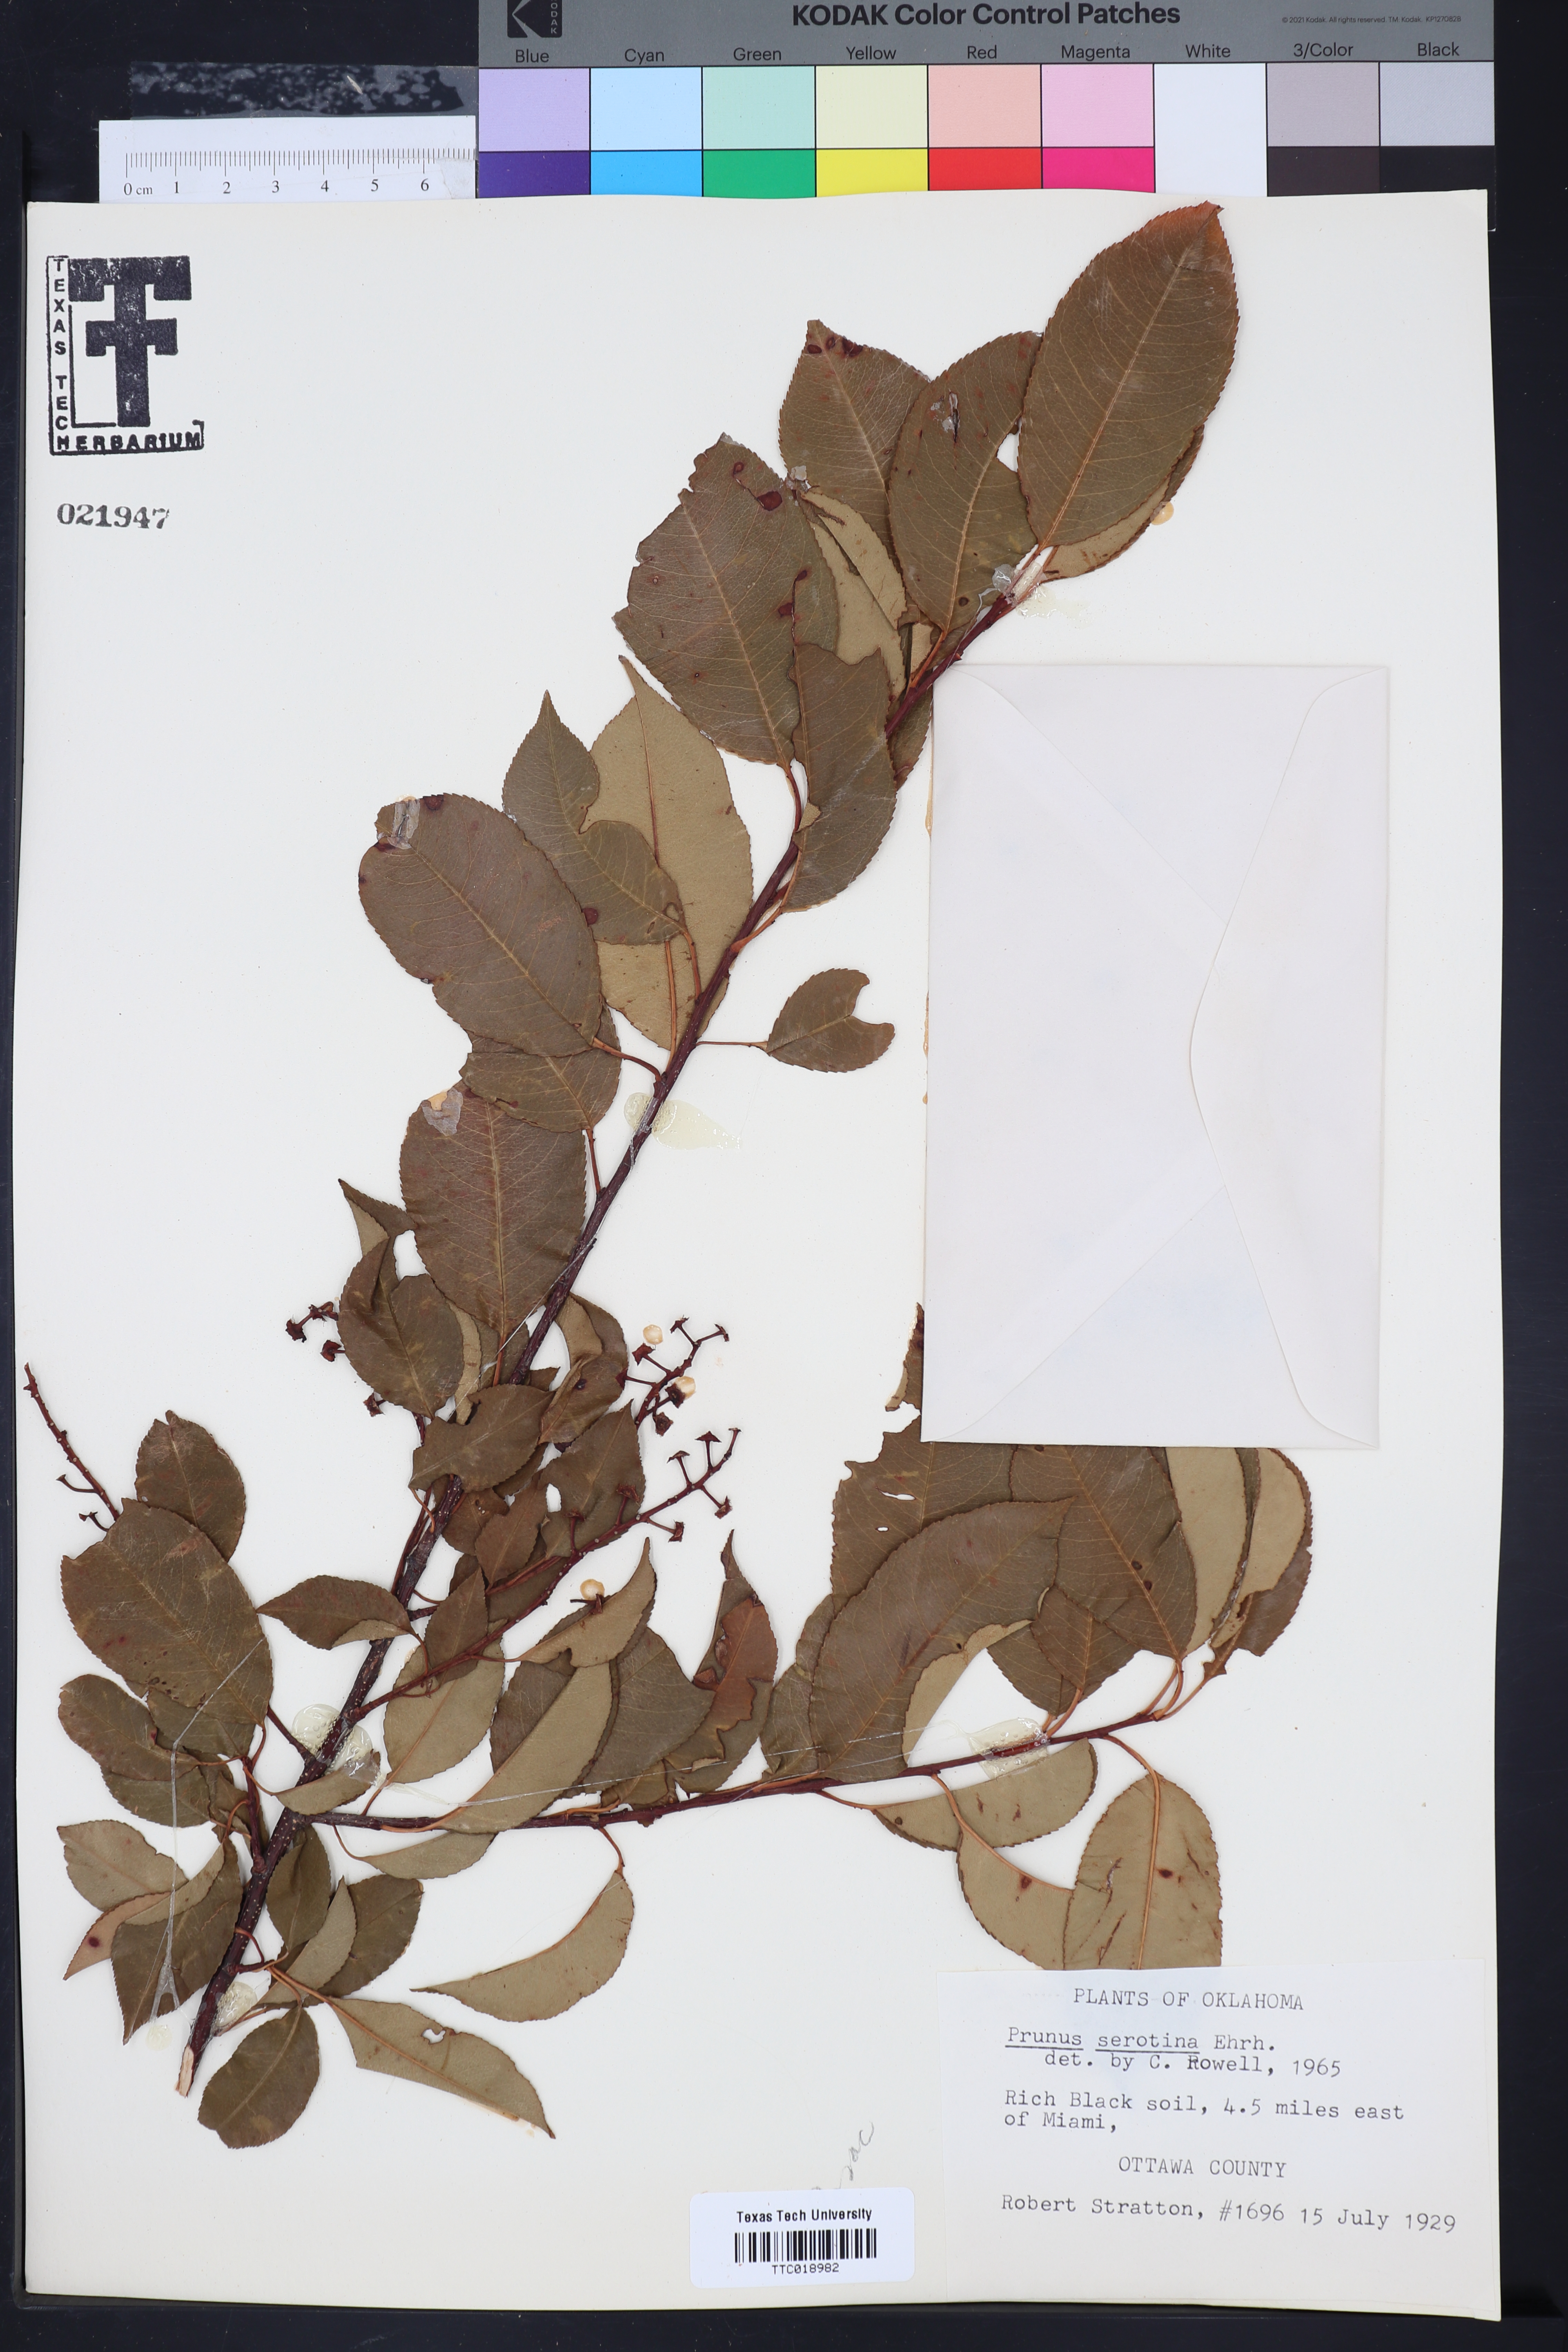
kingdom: Plantae
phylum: Tracheophyta
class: Magnoliopsida
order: Rosales
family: Rosaceae
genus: Prunus
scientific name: Prunus serotina
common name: Black cherry
